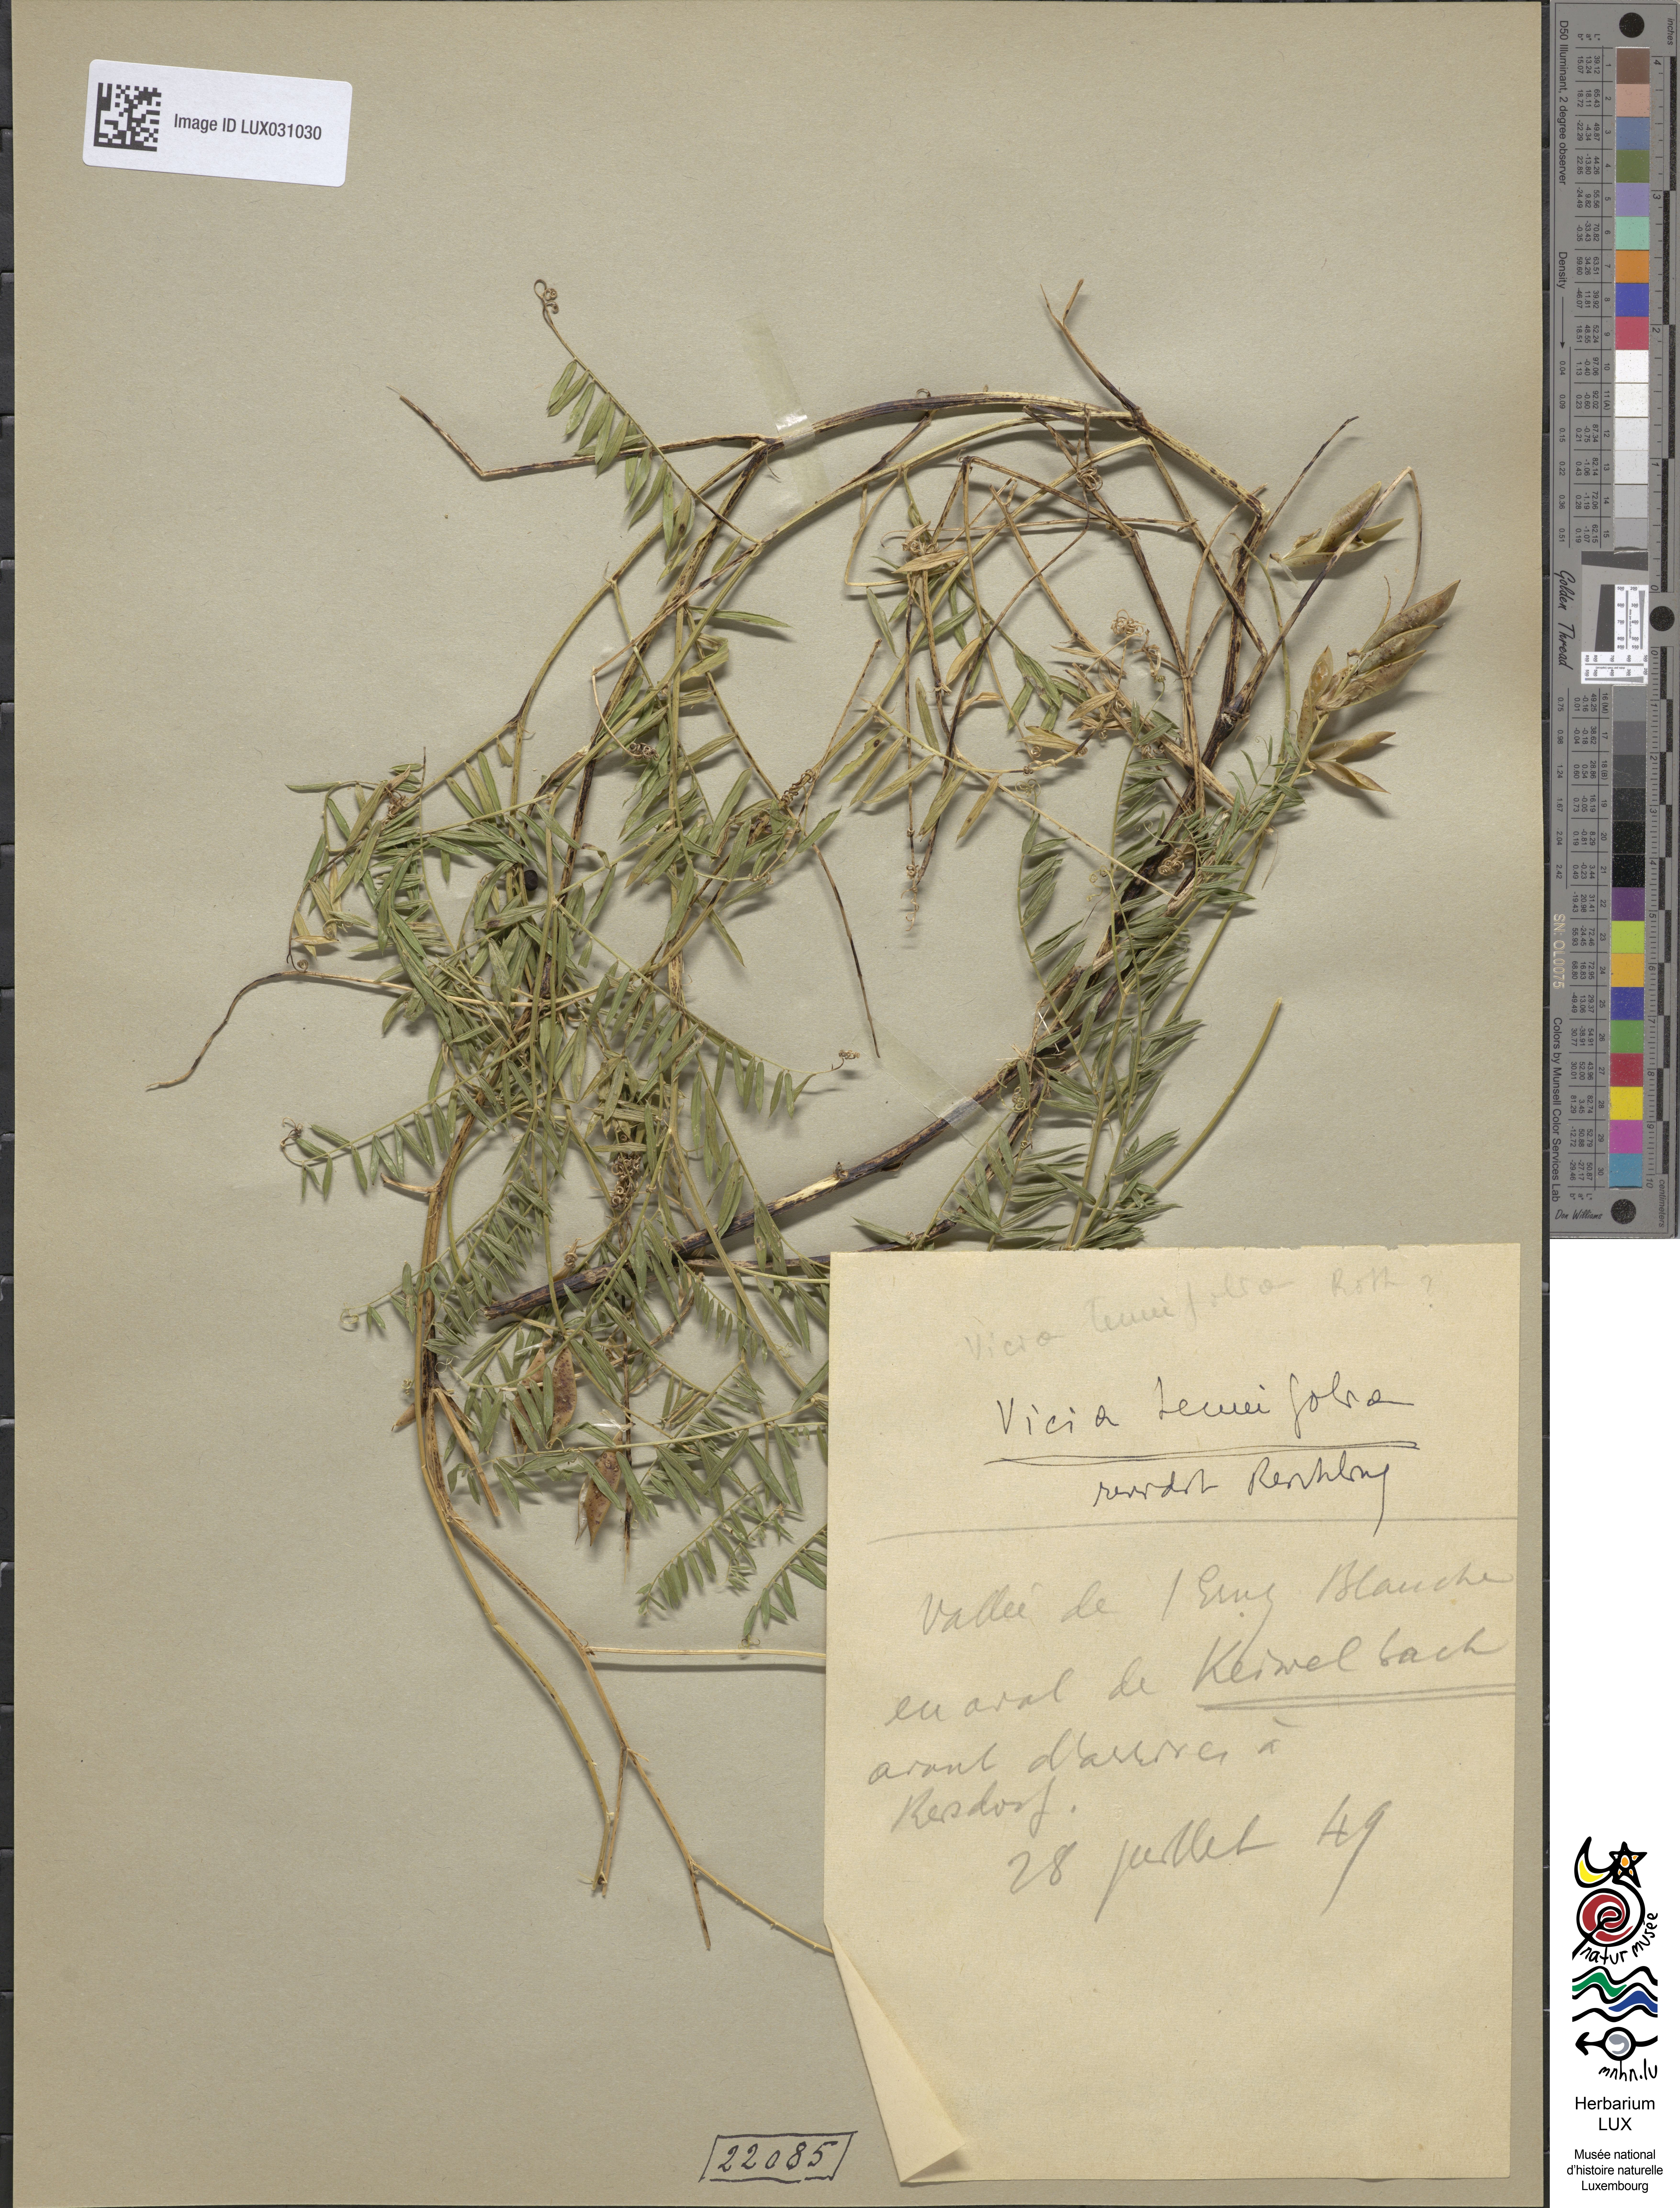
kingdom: Plantae
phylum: Tracheophyta
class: Magnoliopsida
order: Fabales
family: Fabaceae
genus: Vicia
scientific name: Vicia tenuifolia
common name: Fine-leaved vetch
